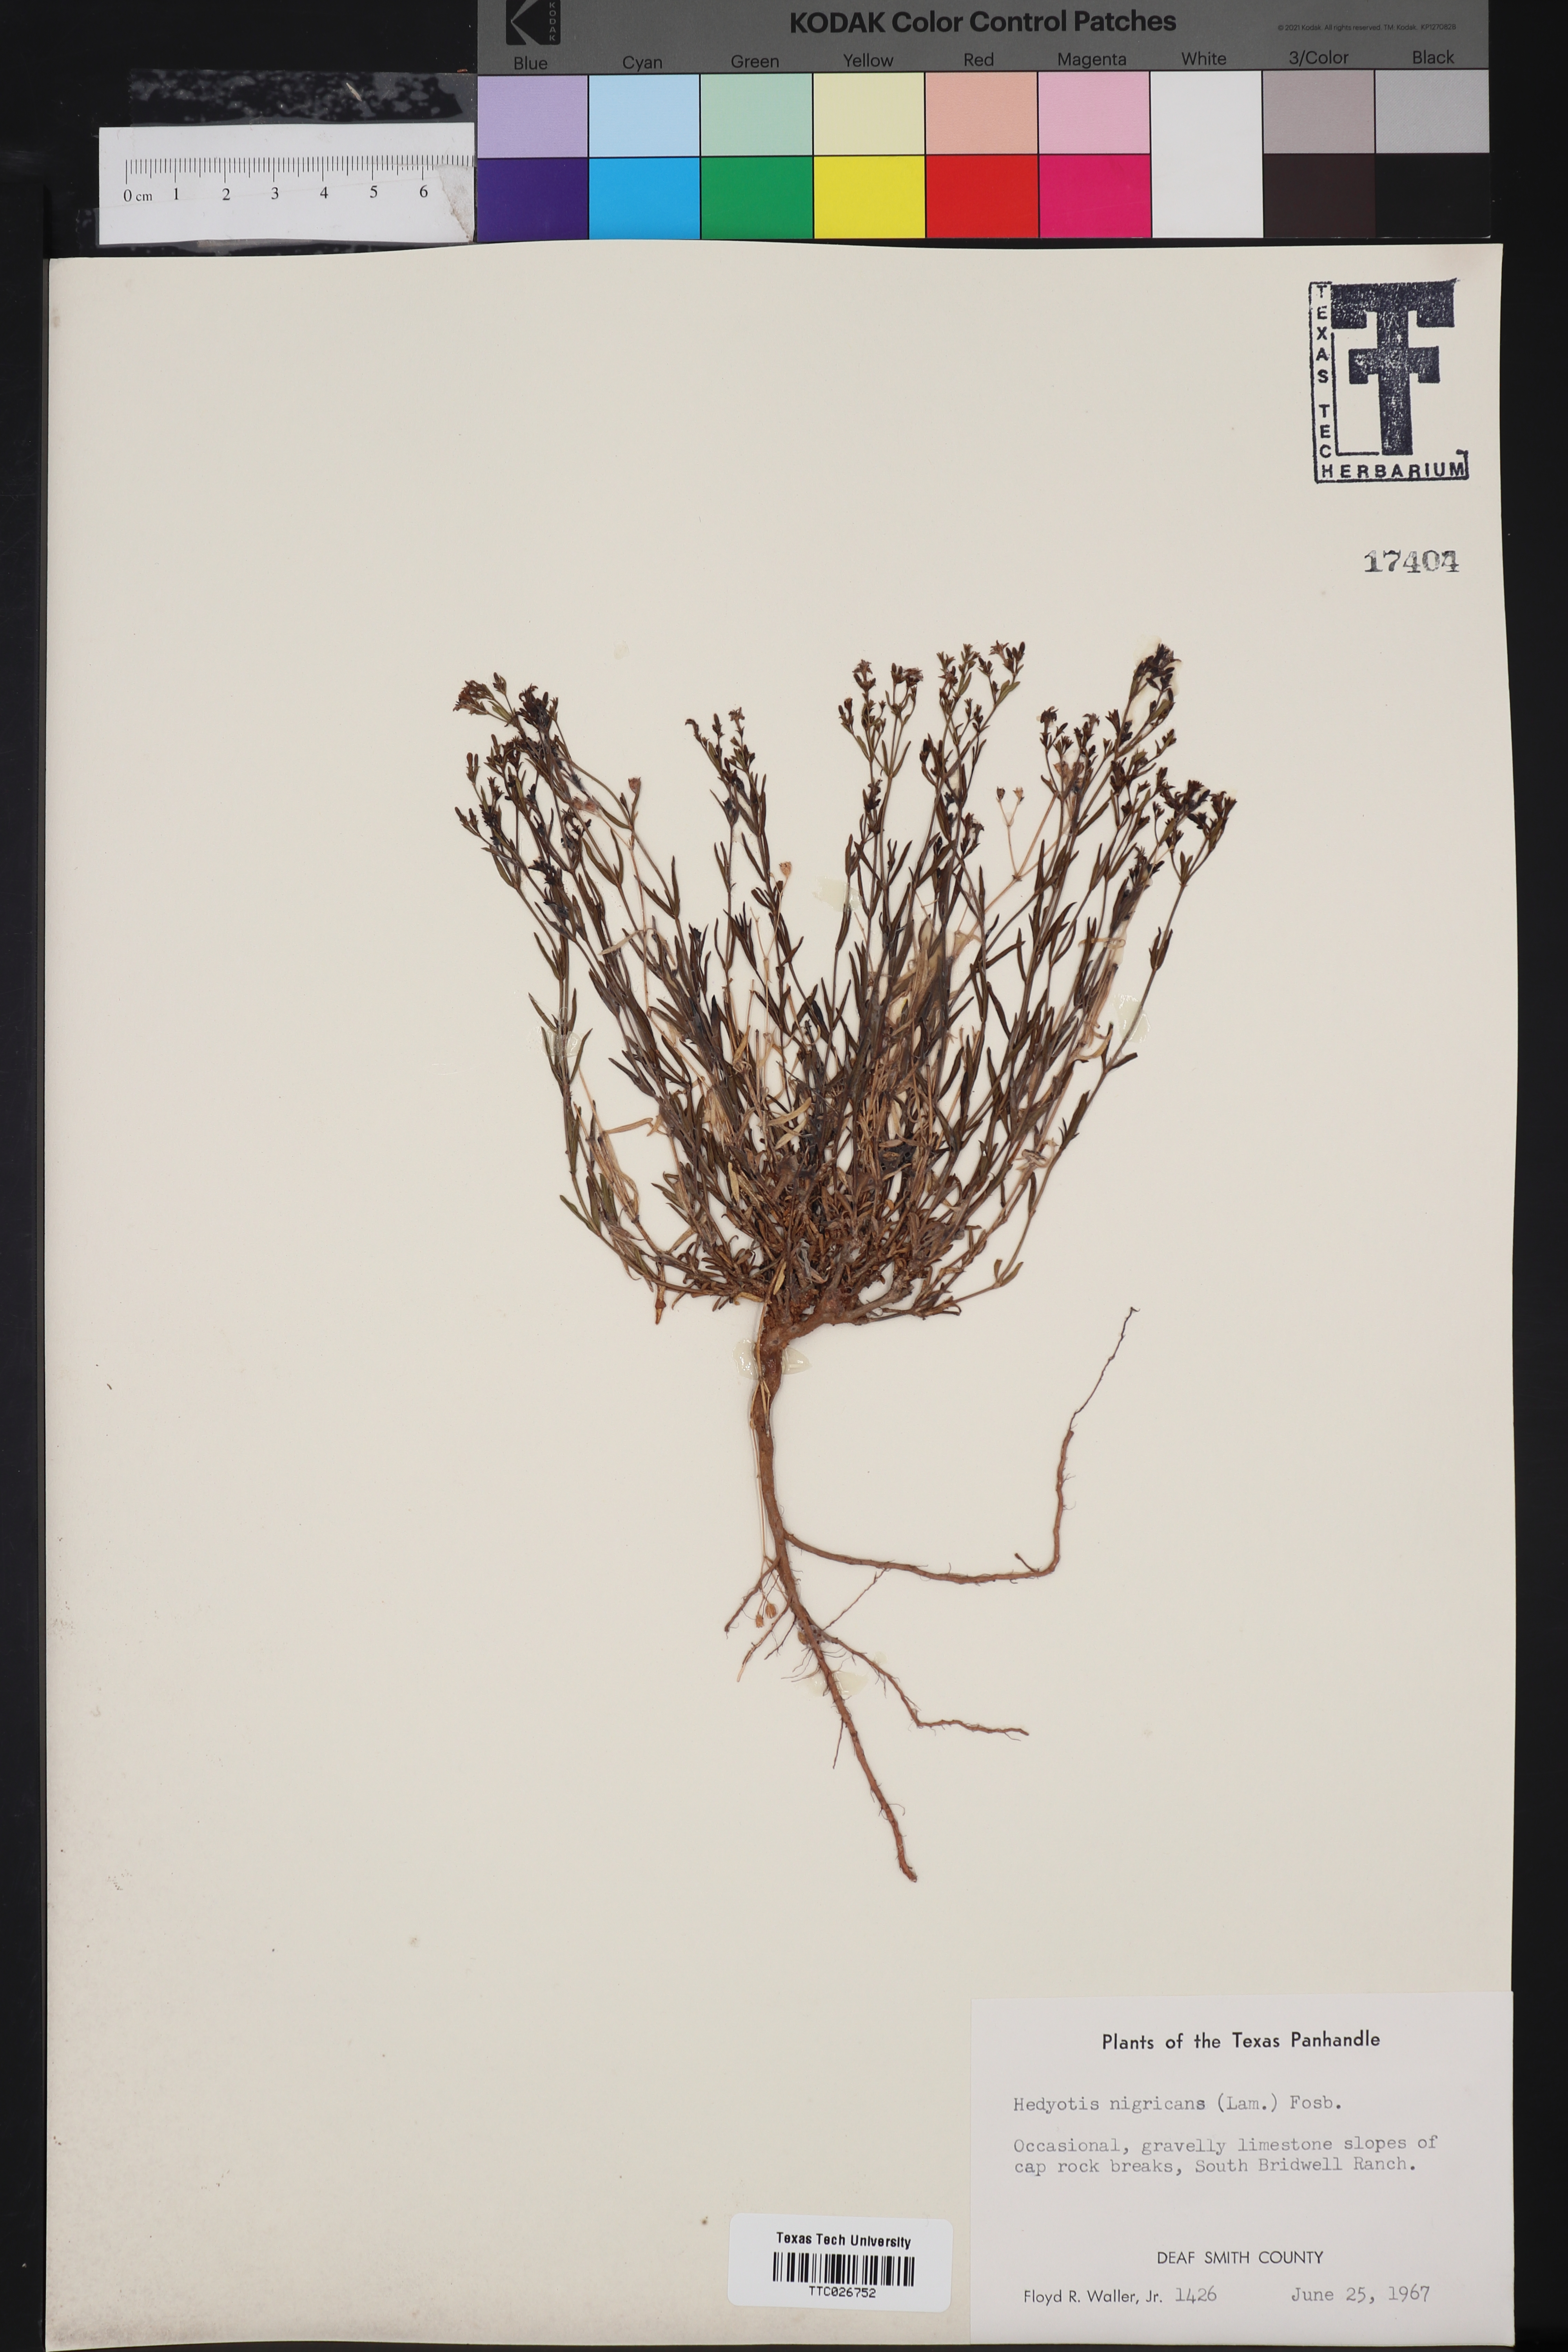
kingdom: Plantae
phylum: Tracheophyta
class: Magnoliopsida
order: Gentianales
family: Rubiaceae
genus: Stenaria
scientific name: Stenaria nigricans
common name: Diamondflowers
